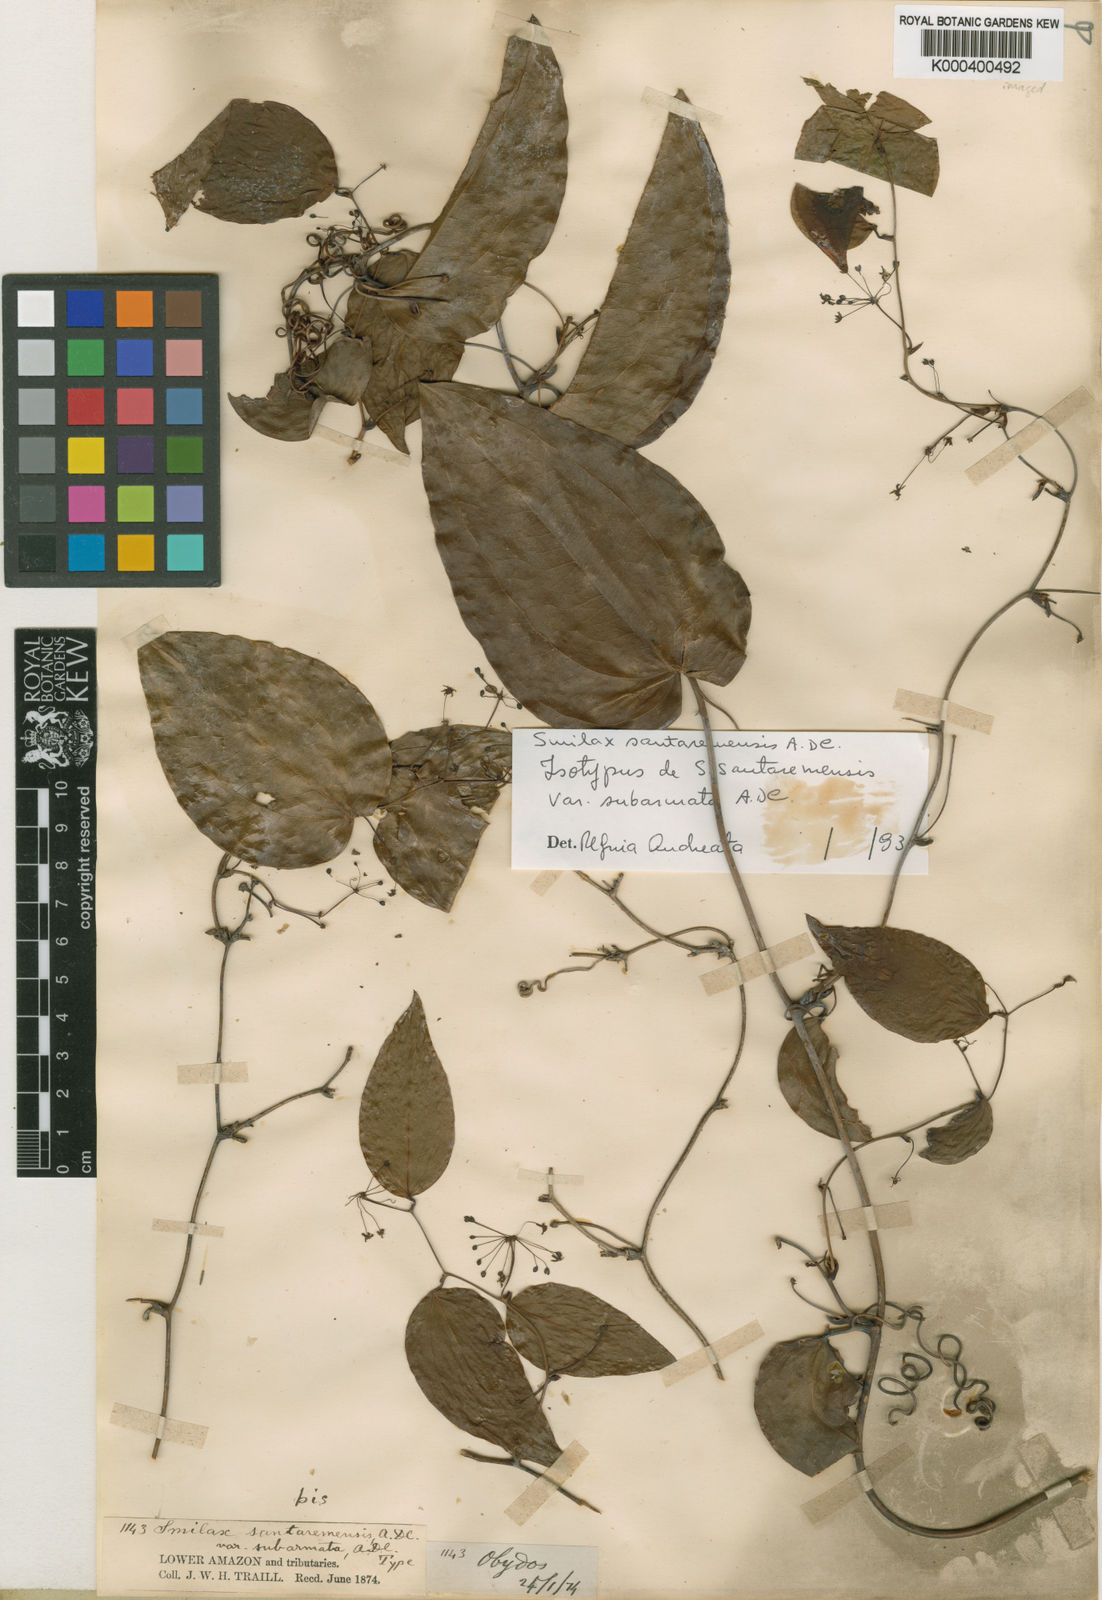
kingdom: Plantae
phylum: Tracheophyta
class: Liliopsida
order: Liliales
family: Smilacaceae
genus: Smilax
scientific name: Smilax santaremensis
